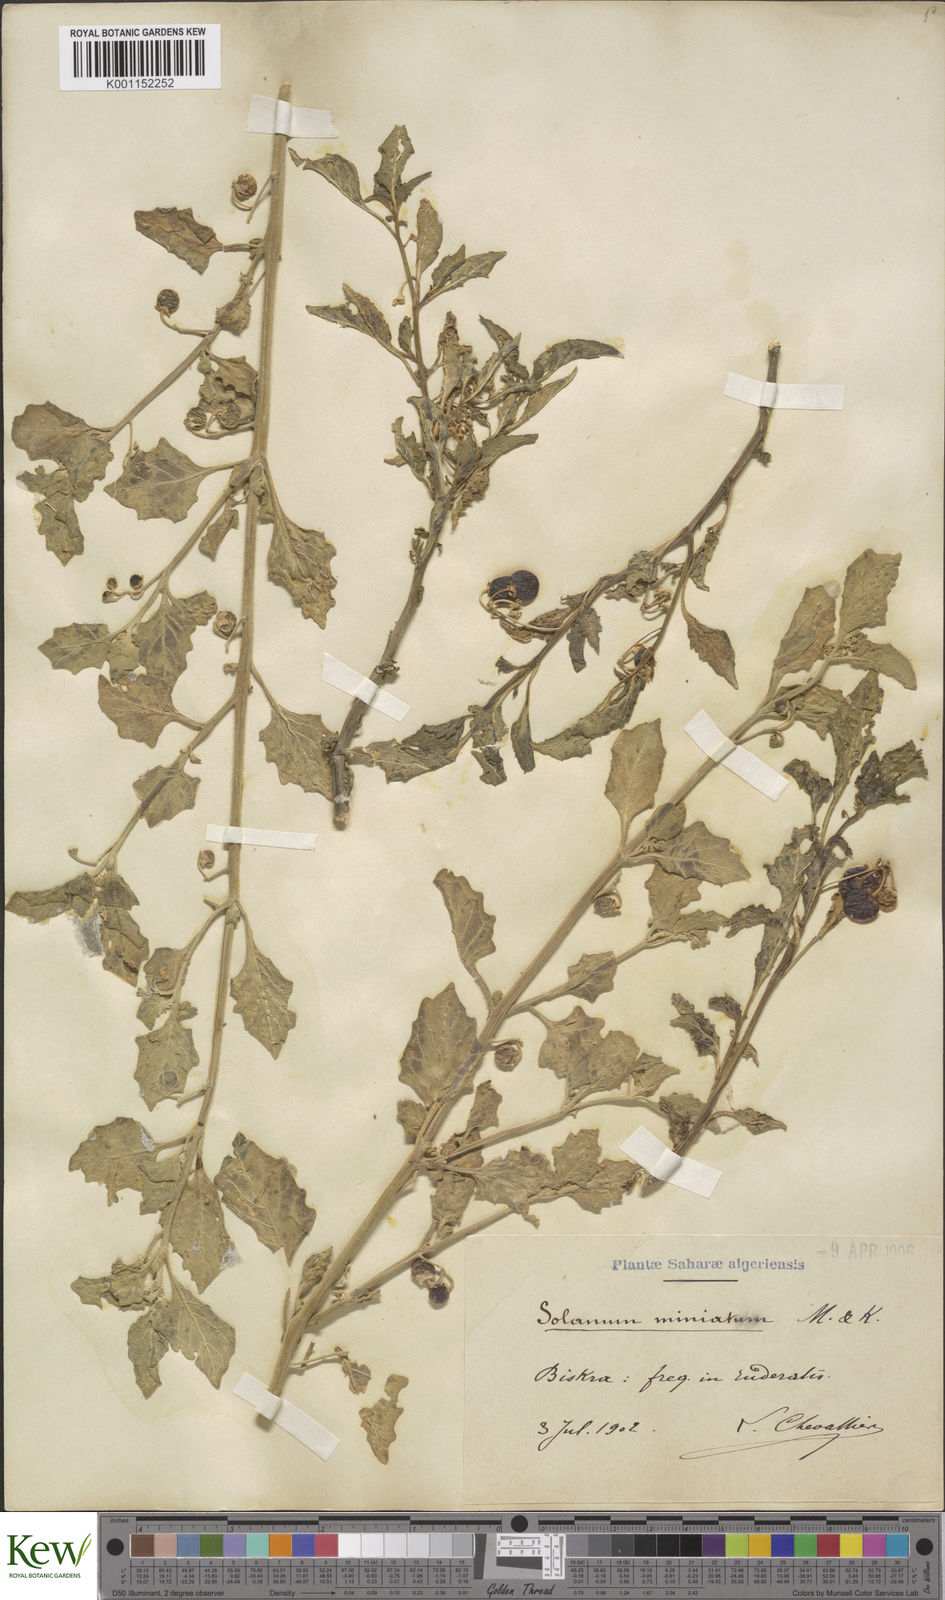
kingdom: Plantae
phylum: Tracheophyta
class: Magnoliopsida
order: Solanales
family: Solanaceae
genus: Solanum
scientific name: Solanum villosum
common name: Red nightshade
